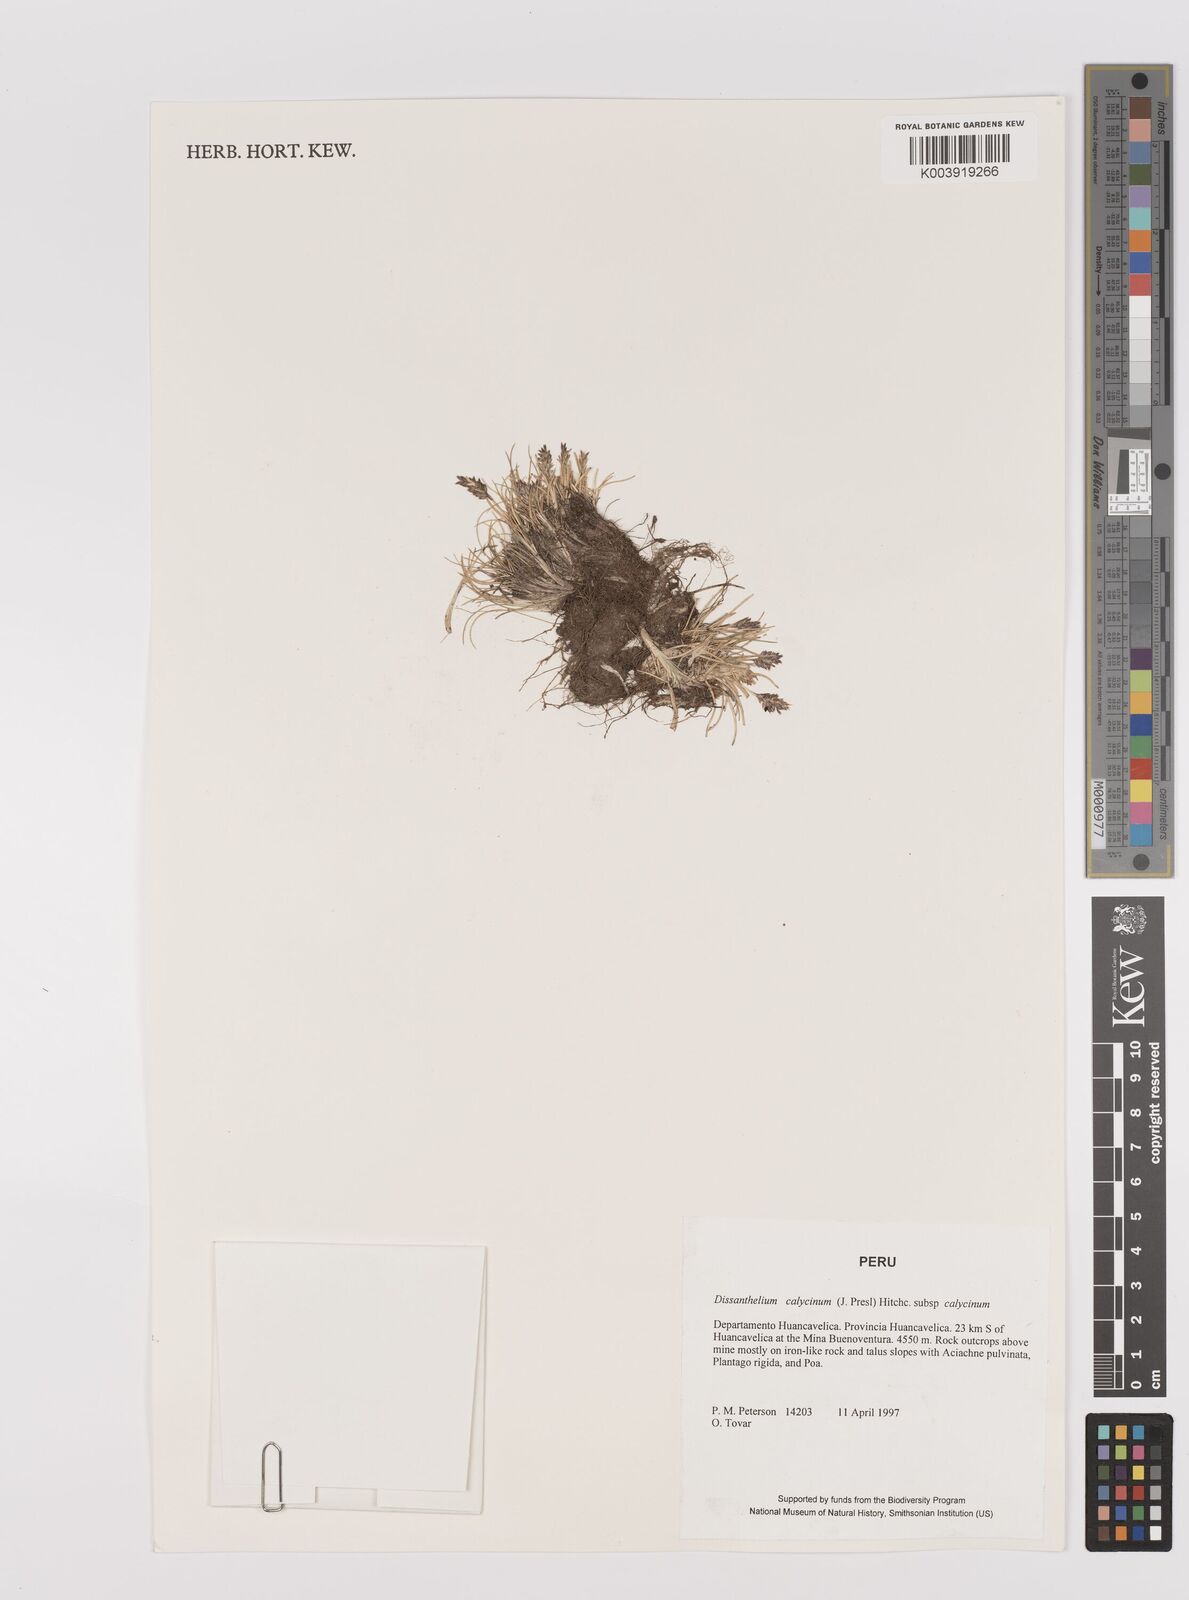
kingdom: Plantae
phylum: Tracheophyta
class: Liliopsida
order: Poales
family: Poaceae
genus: Poa
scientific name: Poa calycina
